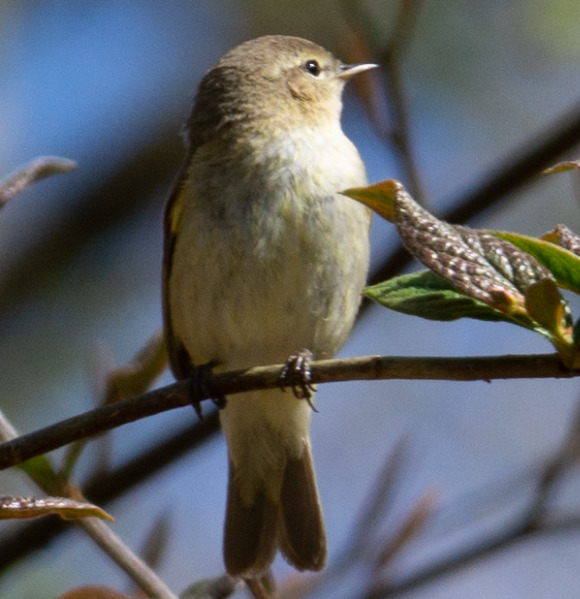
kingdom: Animalia
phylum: Chordata
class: Aves
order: Passeriformes
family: Phylloscopidae
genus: Phylloscopus
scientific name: Phylloscopus collybita
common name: Gransanger
